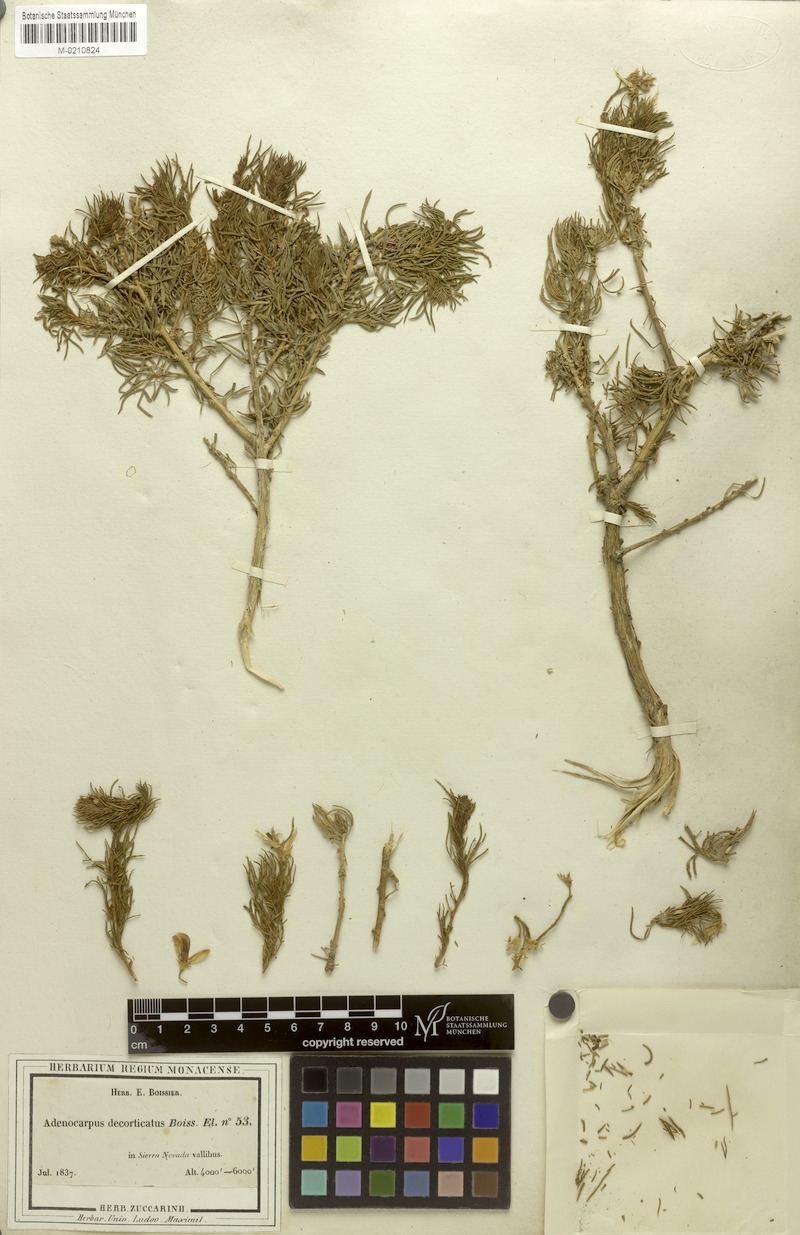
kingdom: Plantae
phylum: Tracheophyta
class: Magnoliopsida
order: Fabales
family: Fabaceae
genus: Adenocarpus
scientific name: Adenocarpus decorticans
